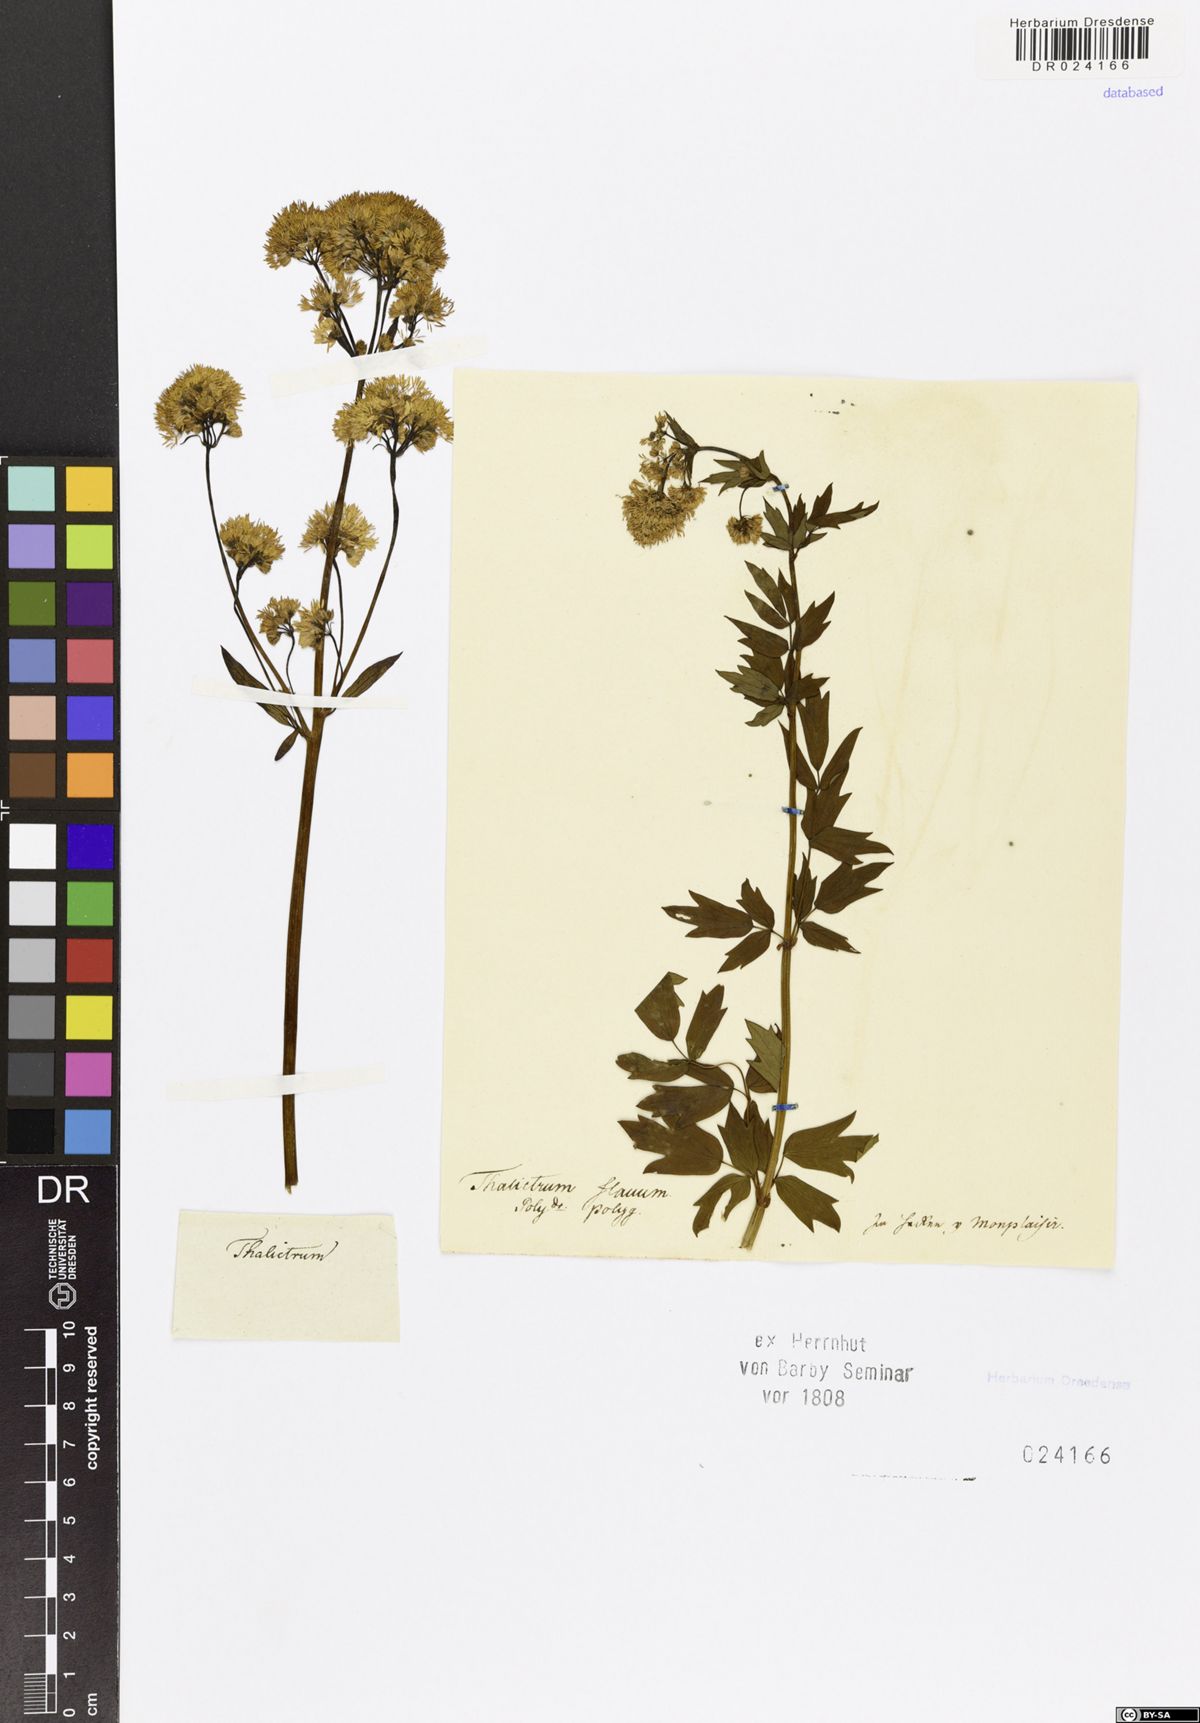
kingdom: Plantae
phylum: Tracheophyta
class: Magnoliopsida
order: Ranunculales
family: Ranunculaceae
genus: Thalictrum
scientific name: Thalictrum flavum
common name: Common meadow-rue
